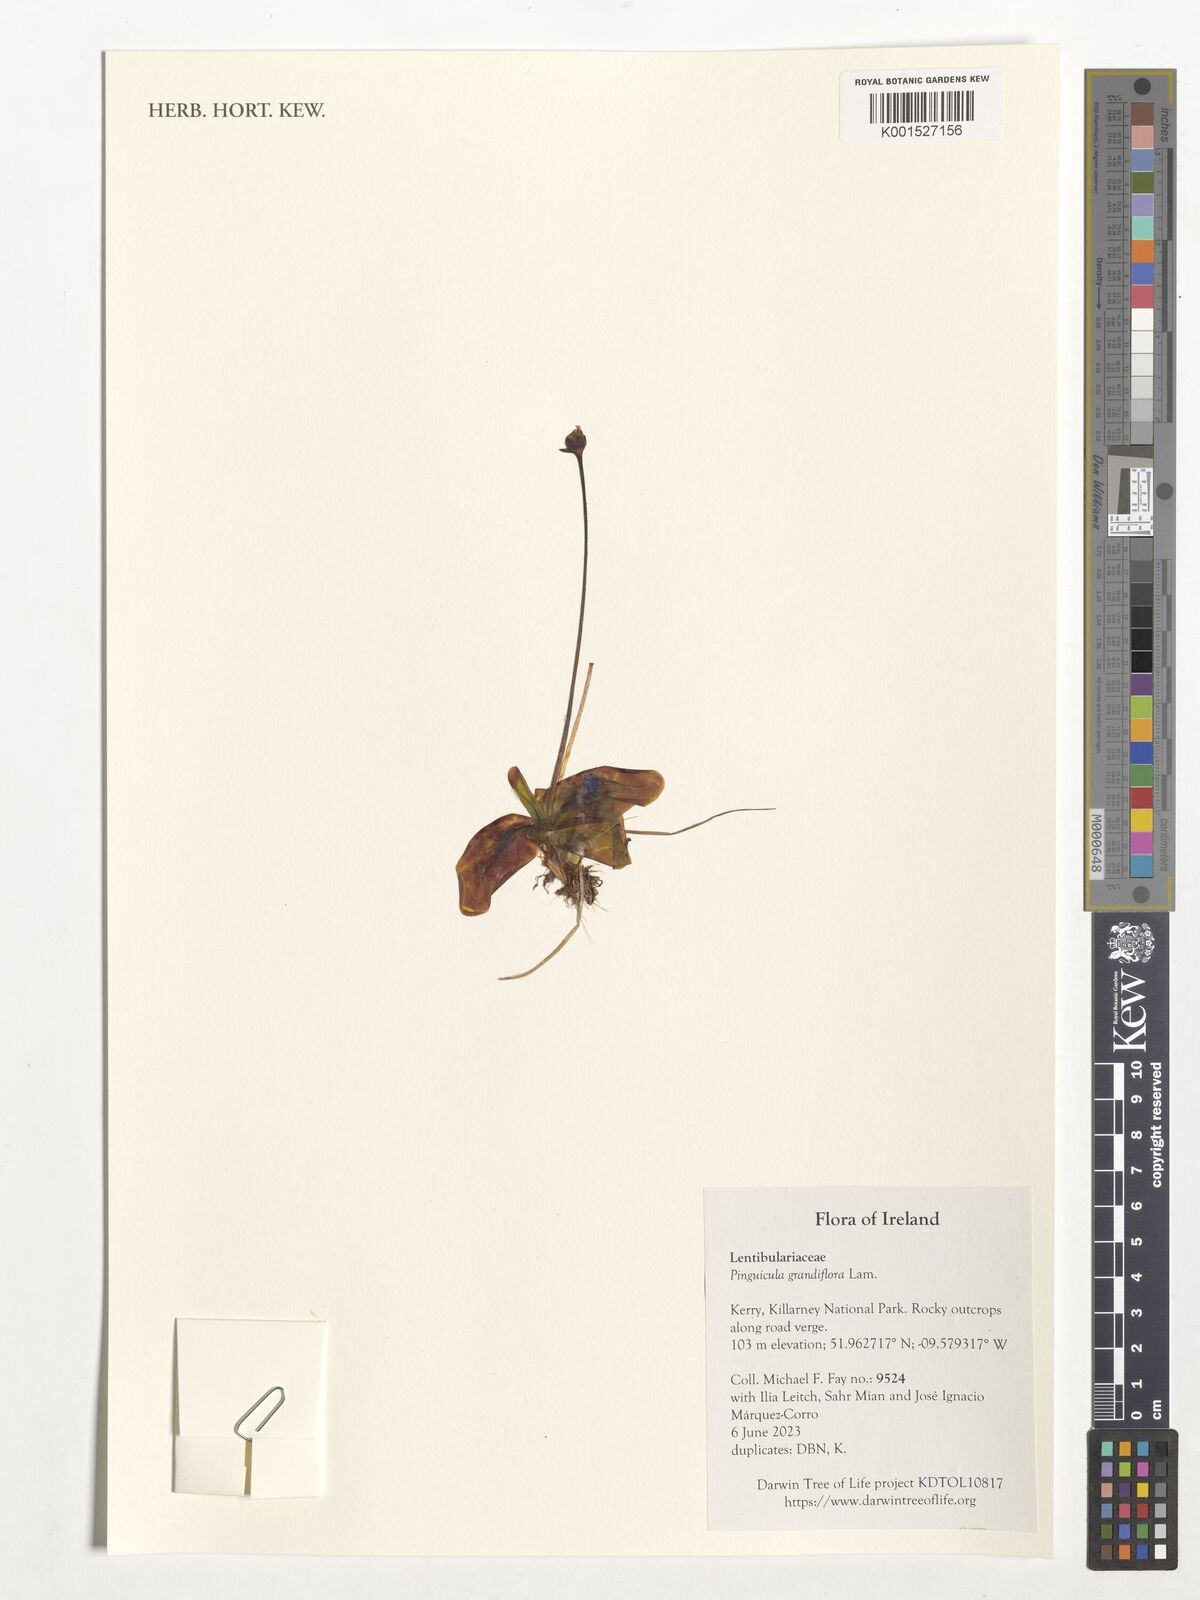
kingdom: Plantae
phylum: Tracheophyta
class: Magnoliopsida
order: Lamiales
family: Lentibulariaceae
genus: Pinguicula
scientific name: Pinguicula grandiflora
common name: Large-flowered butterwort
